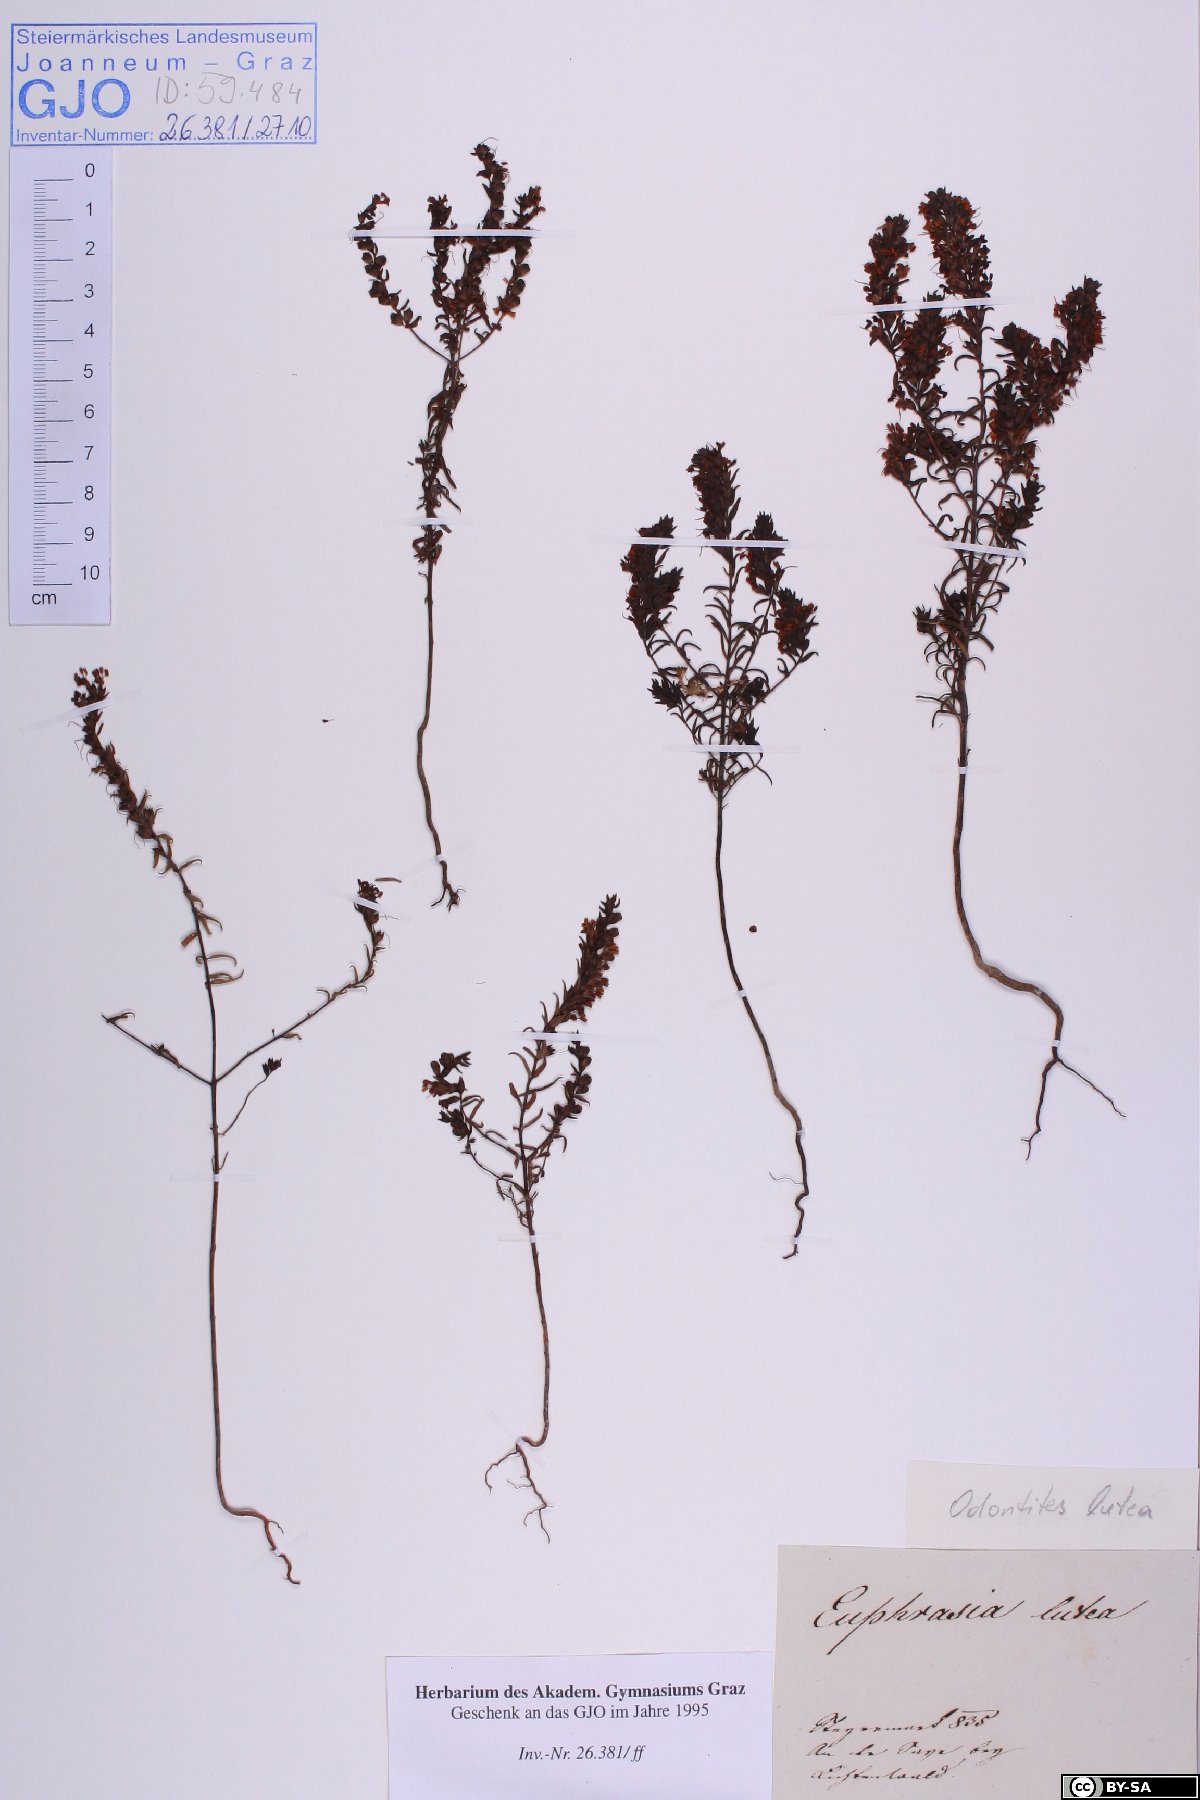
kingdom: Plantae
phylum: Tracheophyta
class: Magnoliopsida
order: Lamiales
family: Orobanchaceae
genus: Odontites
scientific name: Odontites luteus
